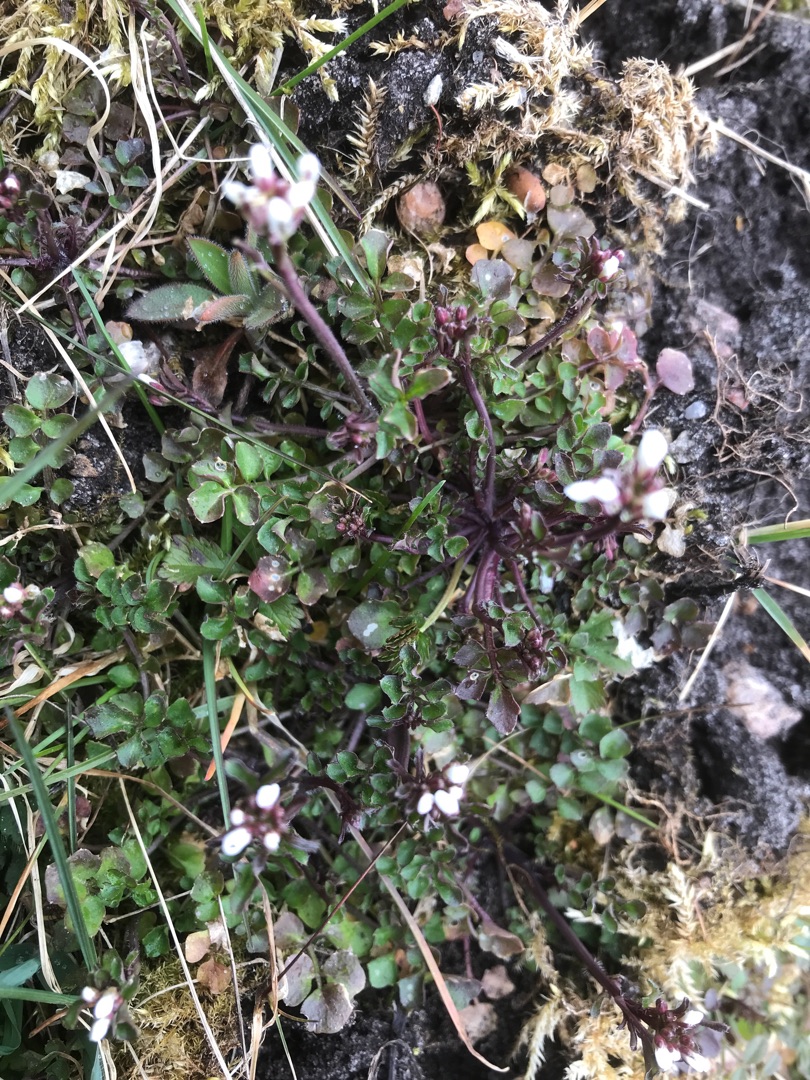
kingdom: Plantae
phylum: Tracheophyta
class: Magnoliopsida
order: Brassicales
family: Brassicaceae
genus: Cardamine
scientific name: Cardamine hirsuta
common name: Roset-springklap
